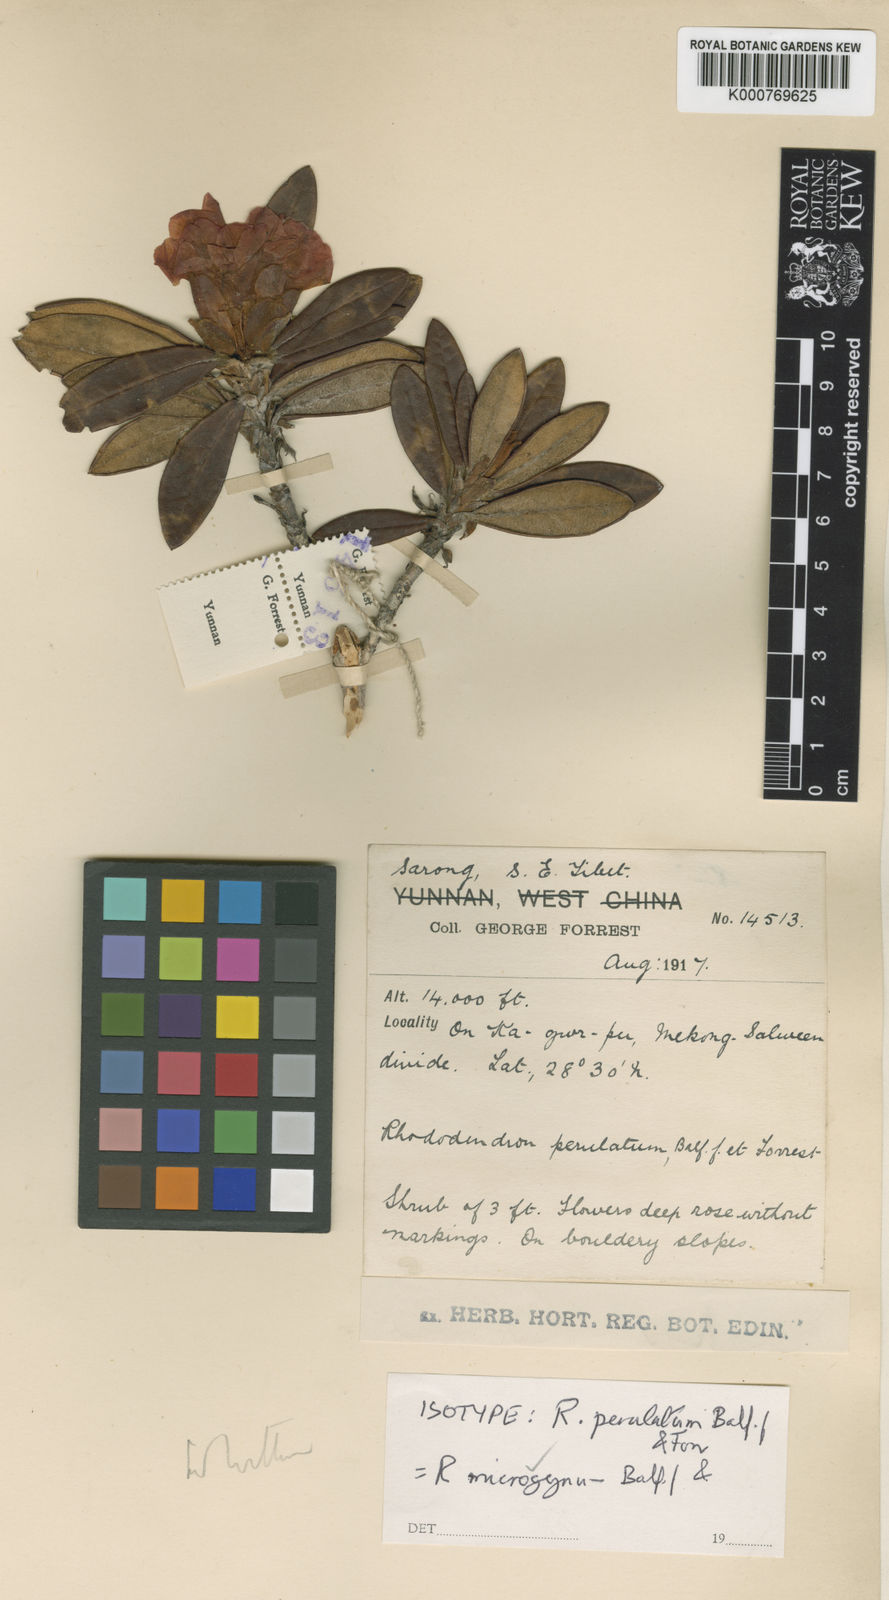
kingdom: Plantae
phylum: Tracheophyta
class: Magnoliopsida
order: Ericales
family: Ericaceae
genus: Rhododendron
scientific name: Rhododendron microgynum
